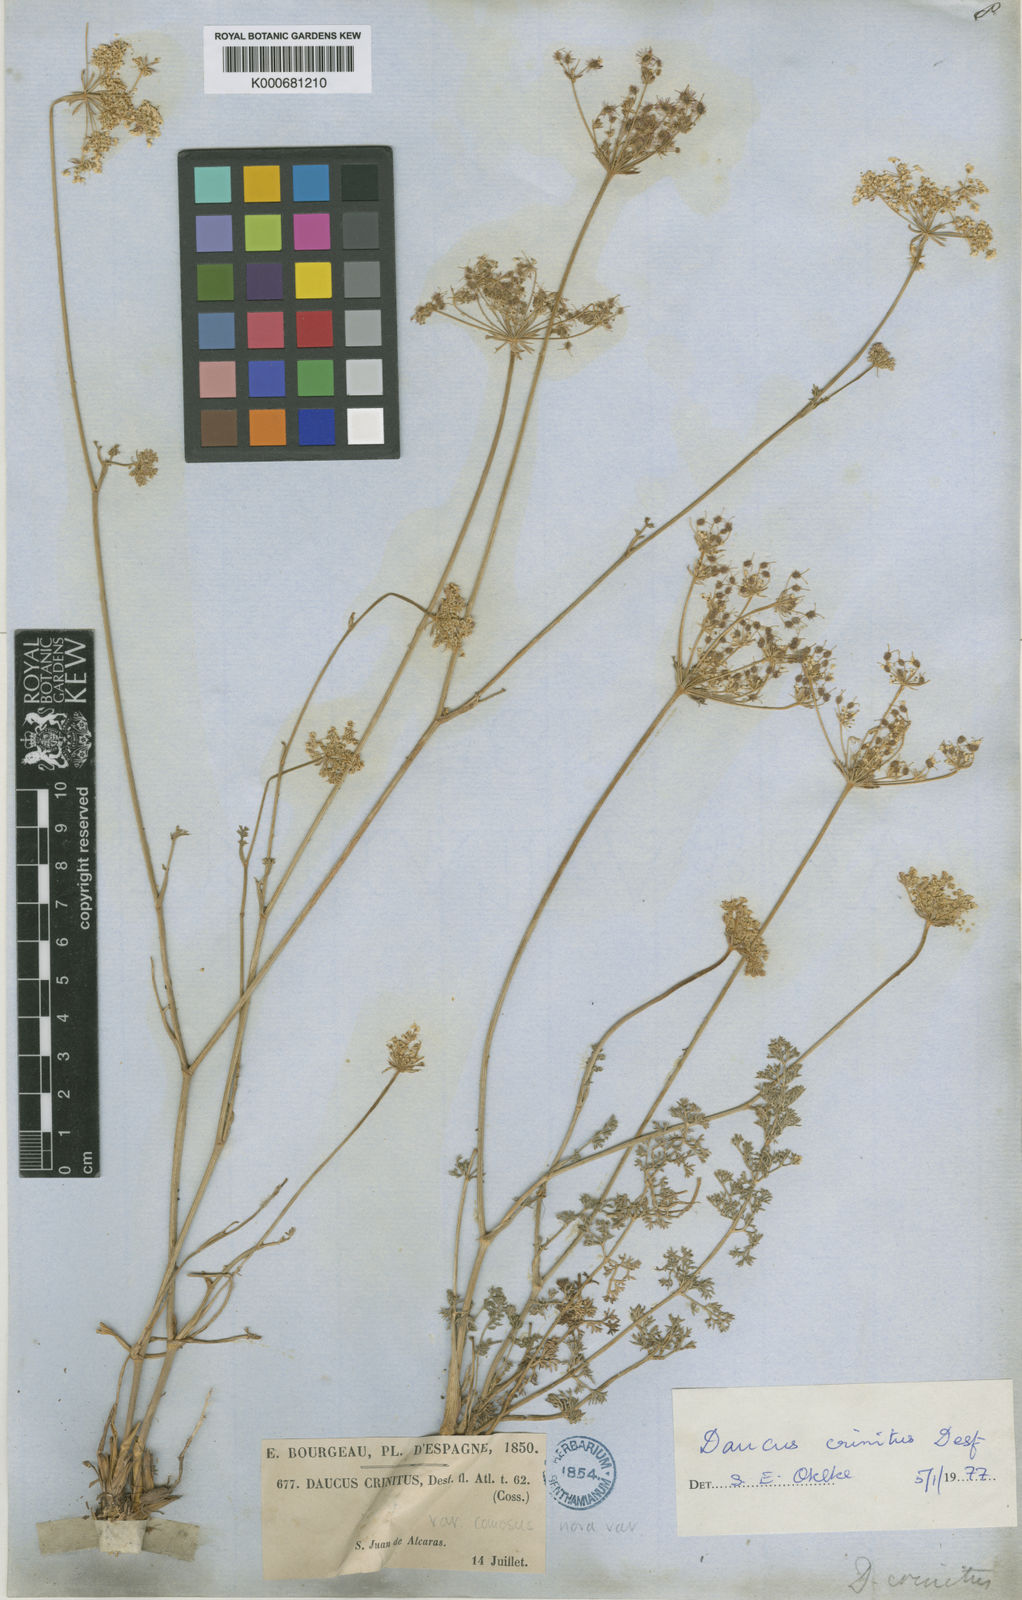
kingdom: Plantae
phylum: Tracheophyta
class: Magnoliopsida
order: Apiales
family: Apiaceae
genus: Daucus
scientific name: Daucus crinitus
